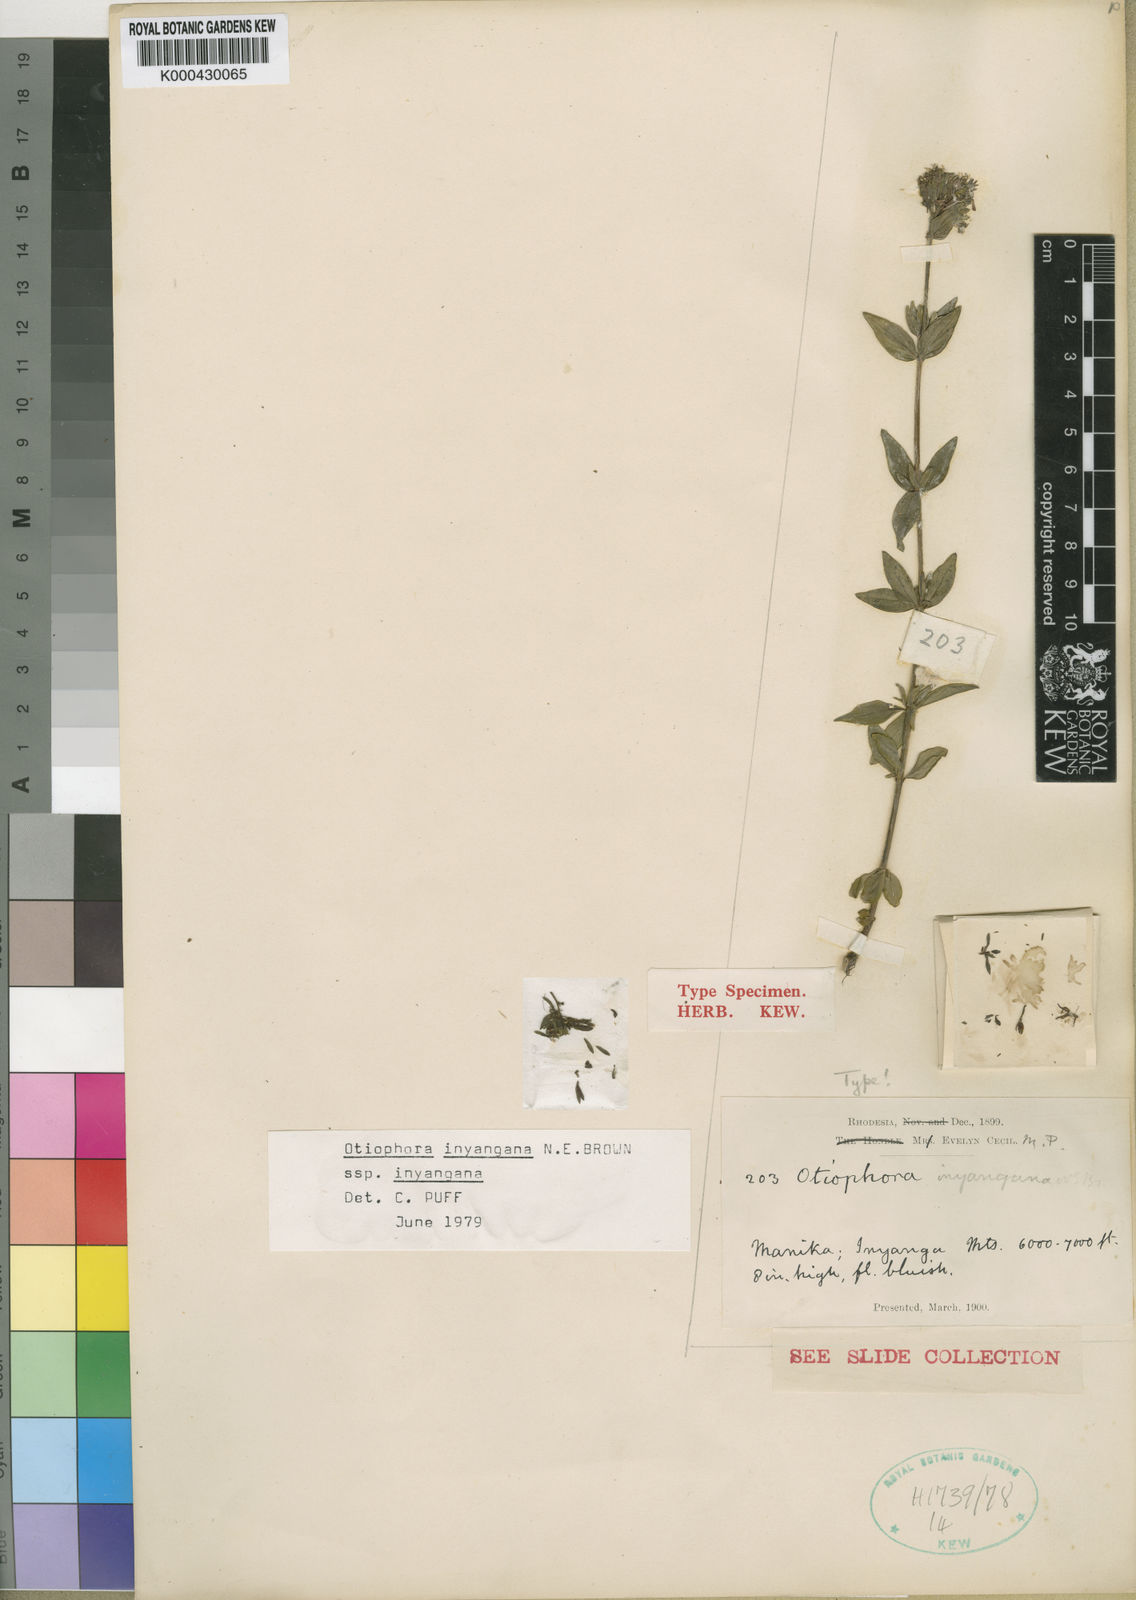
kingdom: Plantae
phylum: Tracheophyta
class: Magnoliopsida
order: Gentianales
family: Rubiaceae
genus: Otiophora
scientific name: Otiophora inyangana
